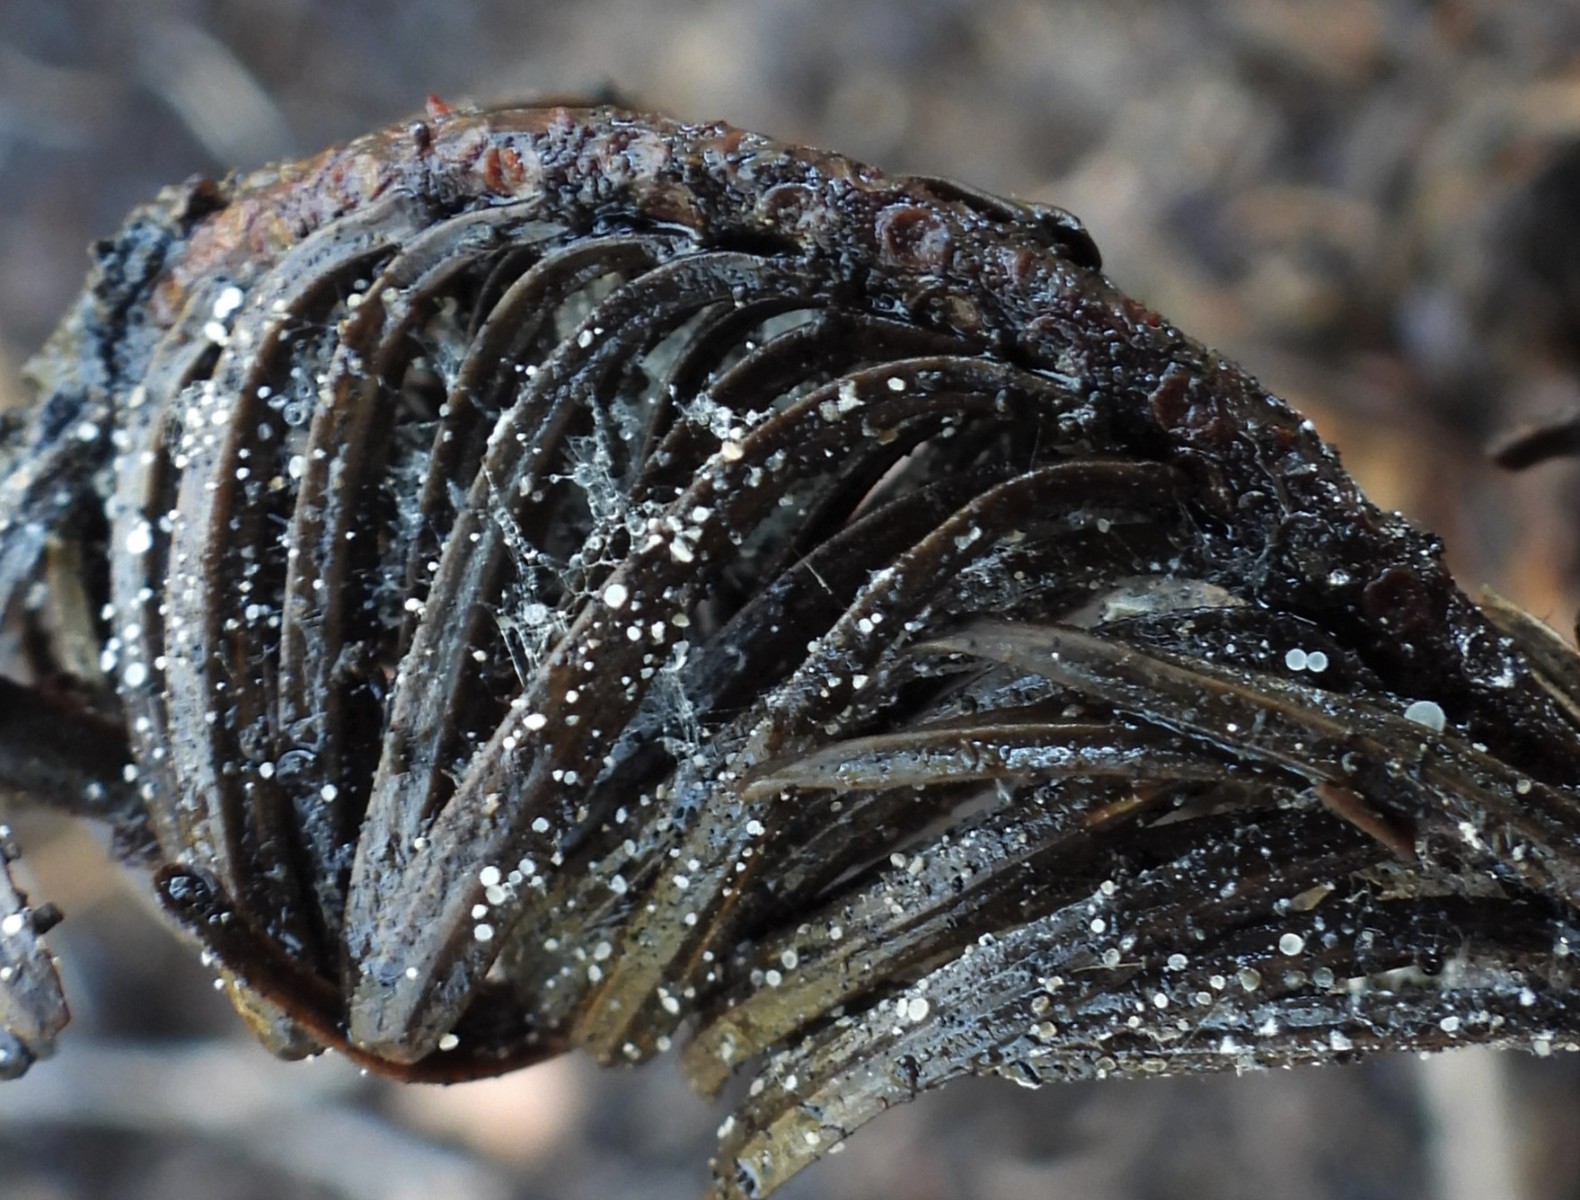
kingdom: Fungi
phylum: Ascomycota
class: Leotiomycetes
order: Helotiales
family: Hyaloscyphaceae
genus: Cistella
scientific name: Cistella acuum
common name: nåle-sirskive
